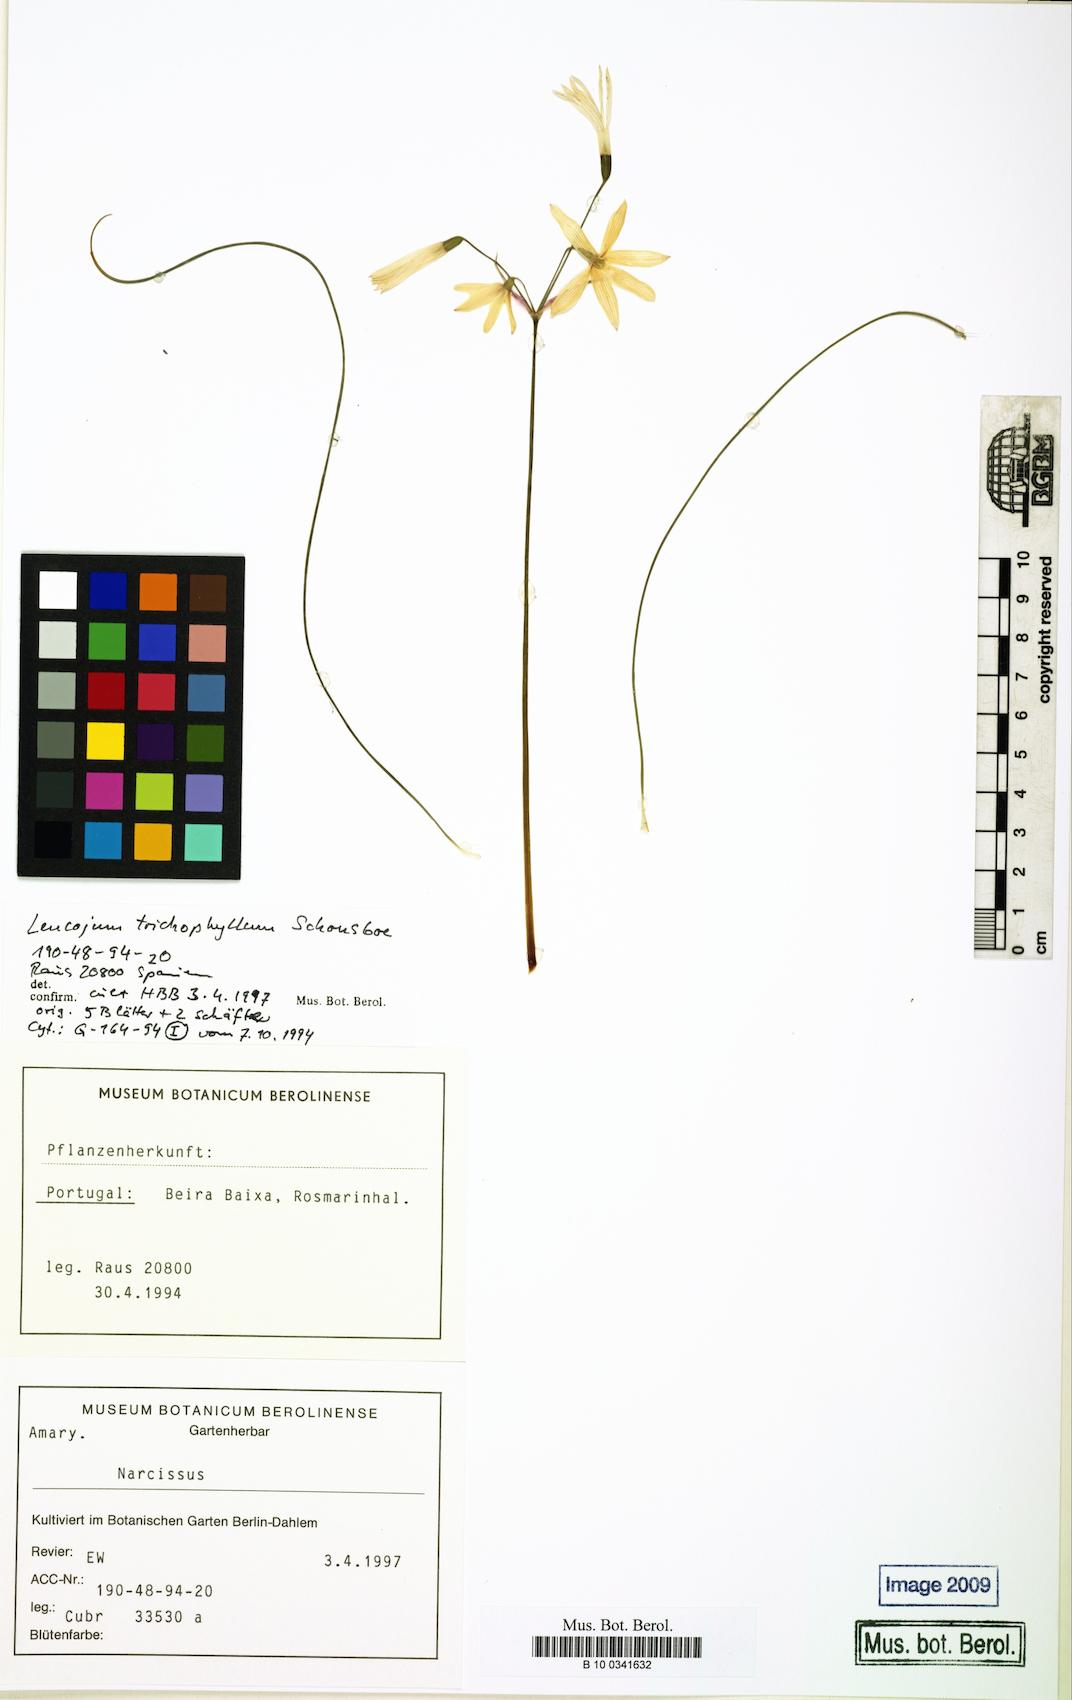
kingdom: Plantae
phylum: Tracheophyta
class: Liliopsida
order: Asparagales
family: Amaryllidaceae
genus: Acis
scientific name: Acis trichophylla
